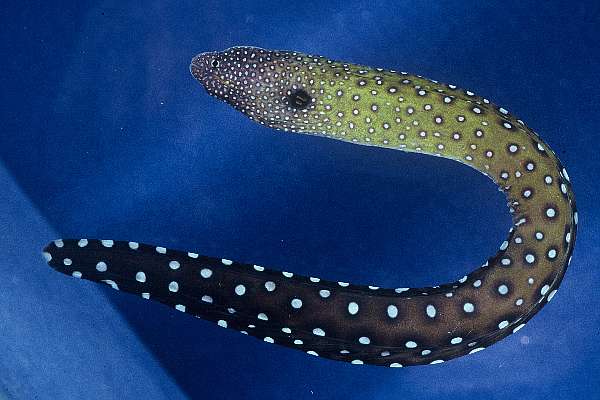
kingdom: Animalia
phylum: Chordata
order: Anguilliformes
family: Muraenidae
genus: Gymnothorax
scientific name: Gymnothorax nudivomer
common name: Yellowmouth moray
